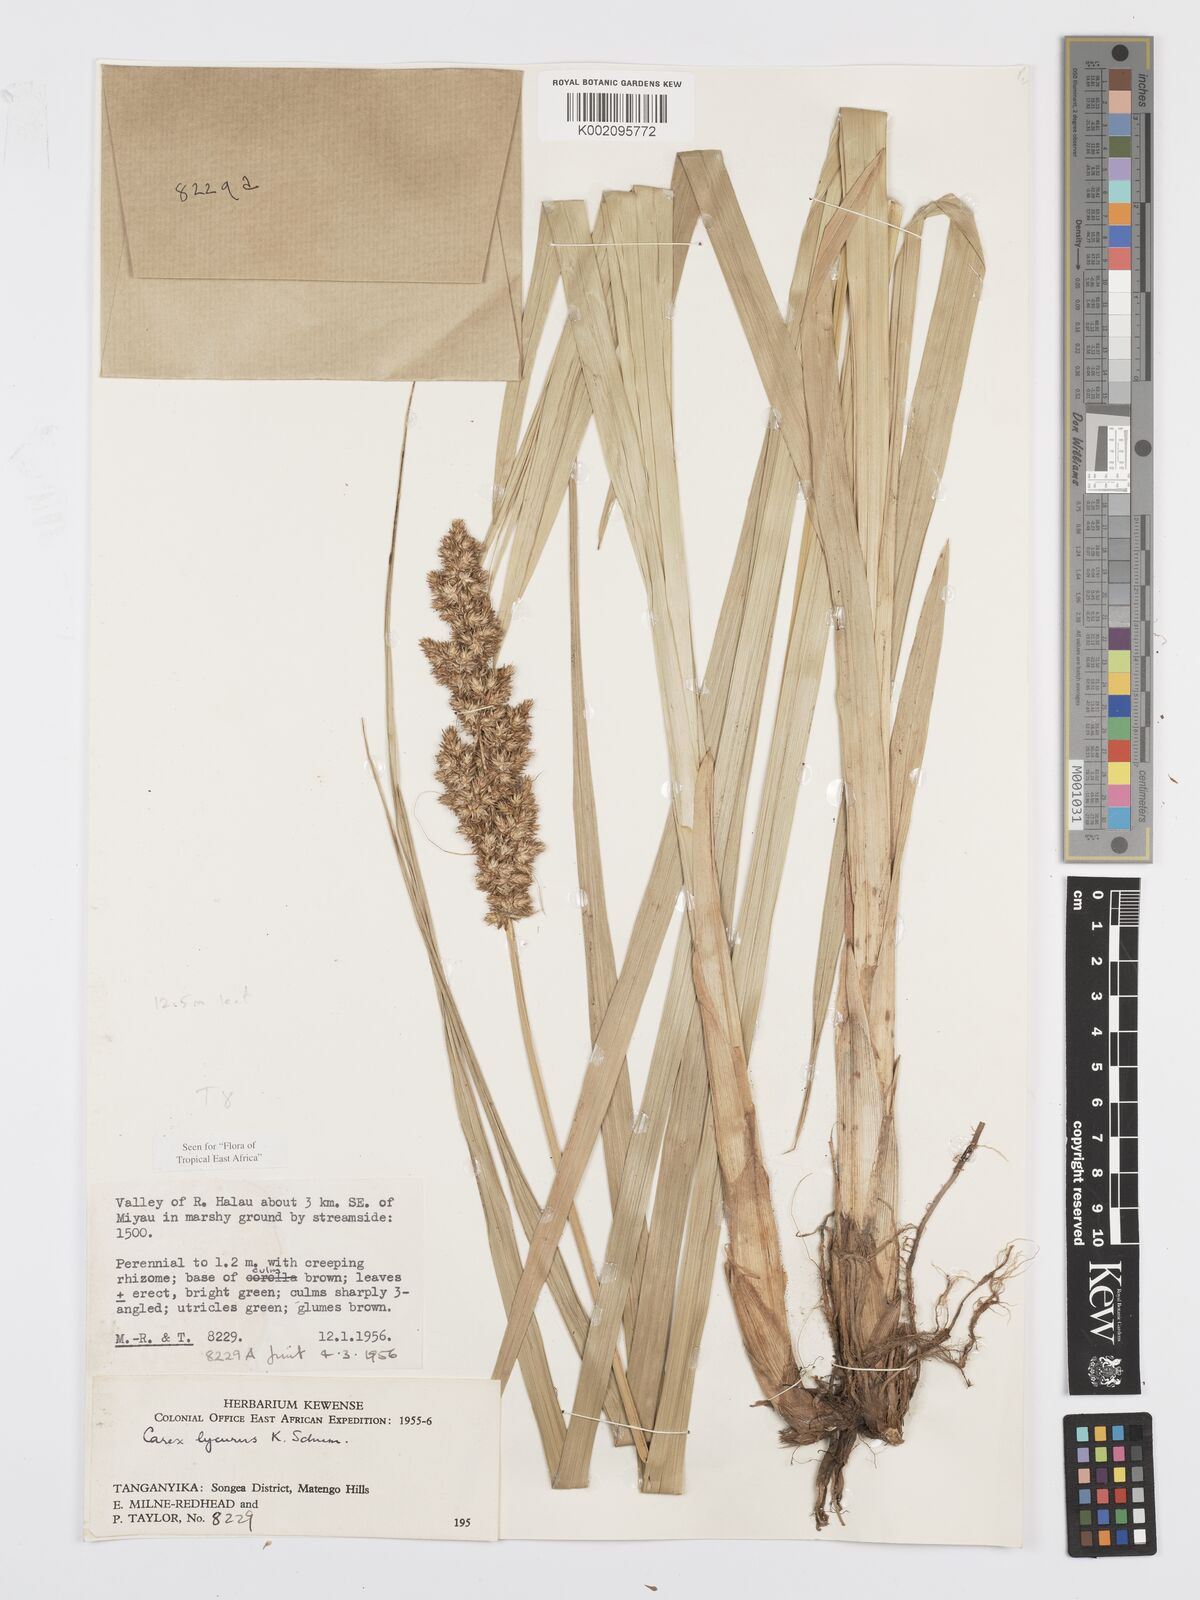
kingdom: Plantae
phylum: Tracheophyta
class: Liliopsida
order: Poales
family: Cyperaceae
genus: Carex
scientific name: Carex lycurus
